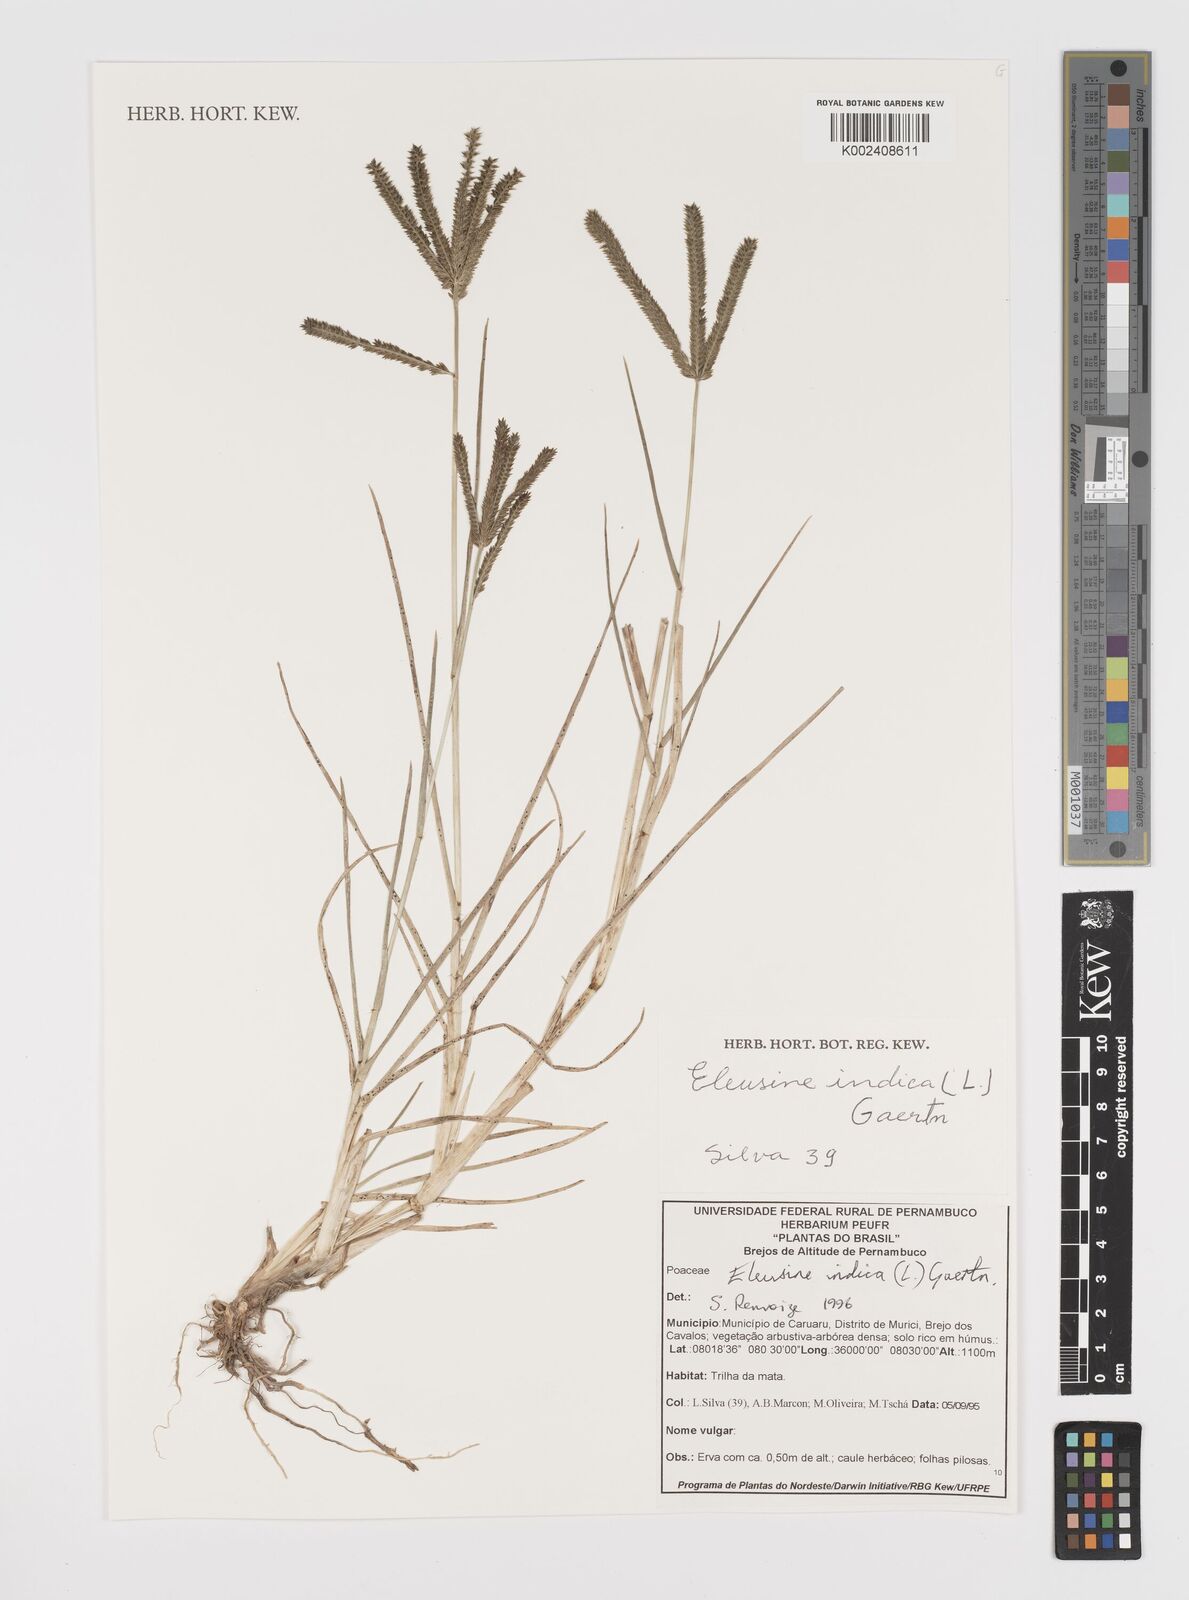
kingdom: Plantae
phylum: Tracheophyta
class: Liliopsida
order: Poales
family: Poaceae
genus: Eleusine
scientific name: Eleusine indica
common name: Yard-grass
